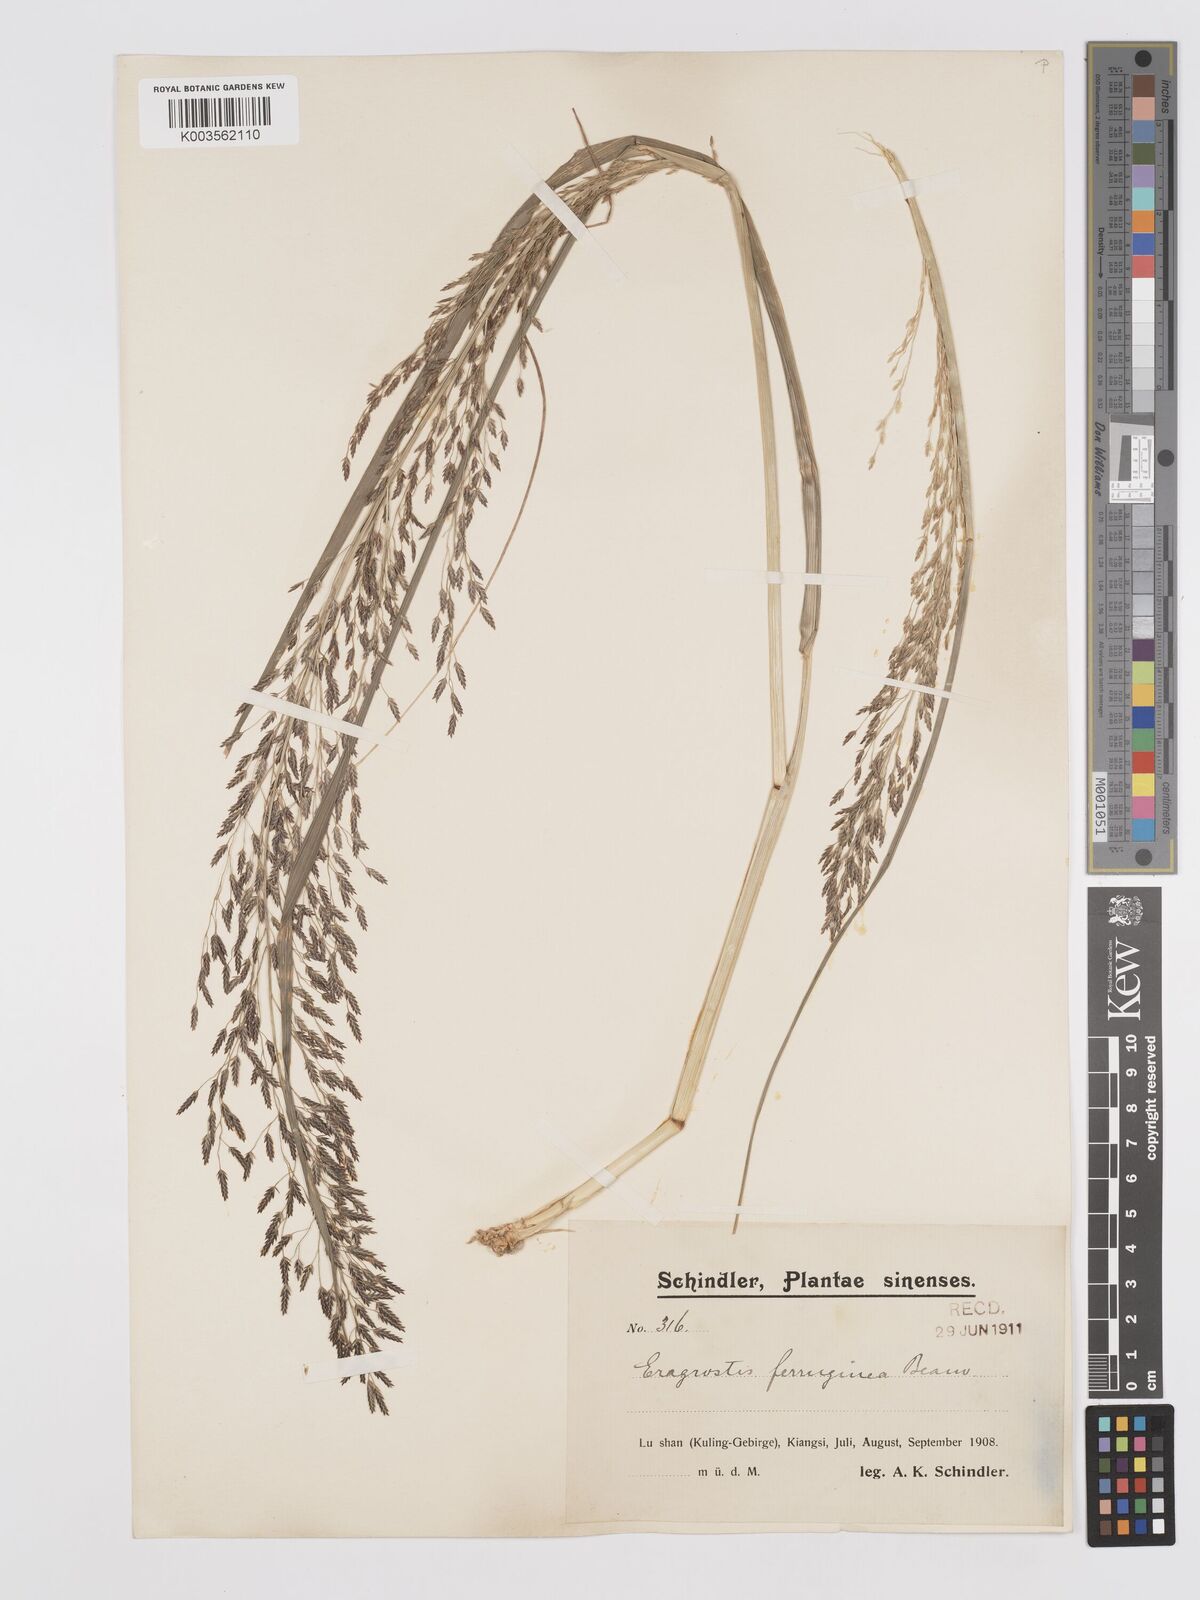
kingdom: Plantae
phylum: Tracheophyta
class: Liliopsida
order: Poales
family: Poaceae
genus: Eragrostis
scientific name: Eragrostis ferruginea
